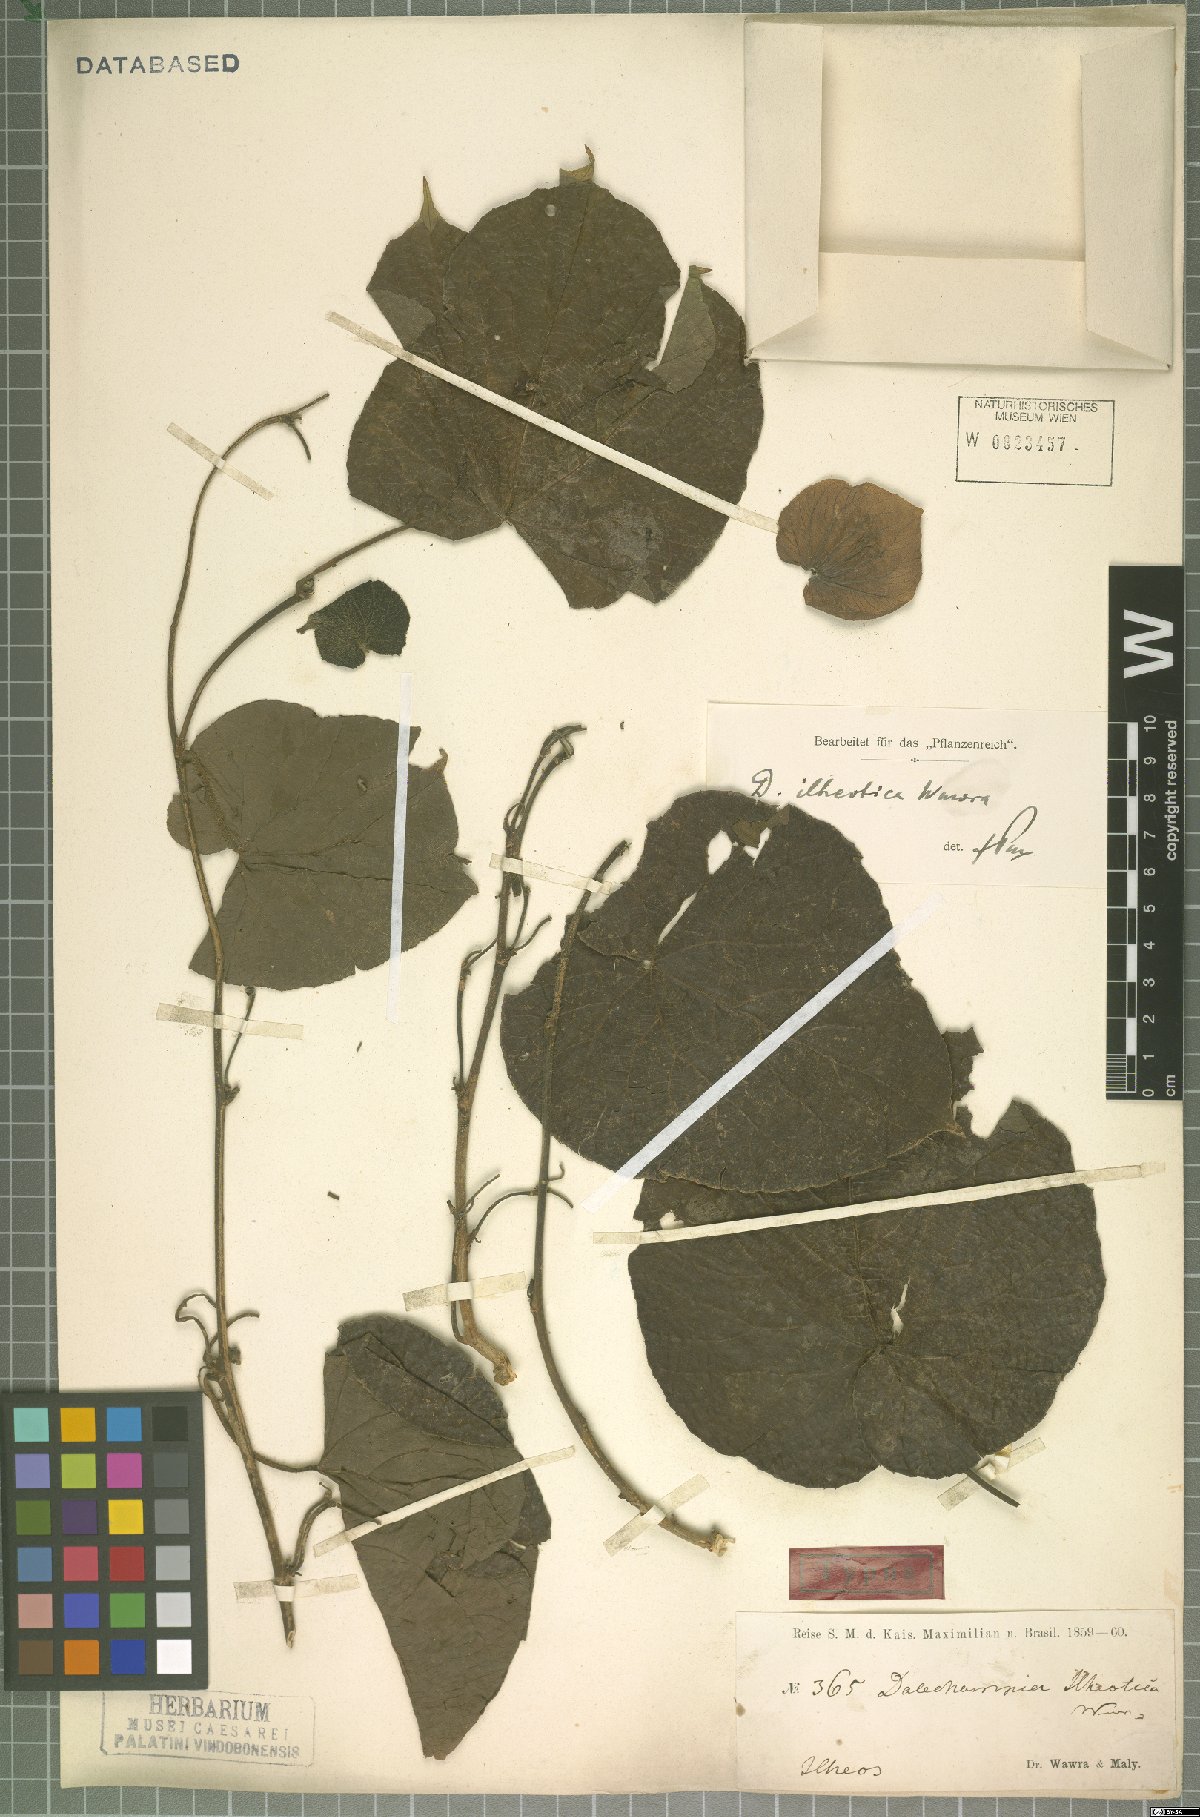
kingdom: Plantae
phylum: Tracheophyta
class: Magnoliopsida
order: Malpighiales
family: Euphorbiaceae
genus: Dalechampia
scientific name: Dalechampia ilheotica
